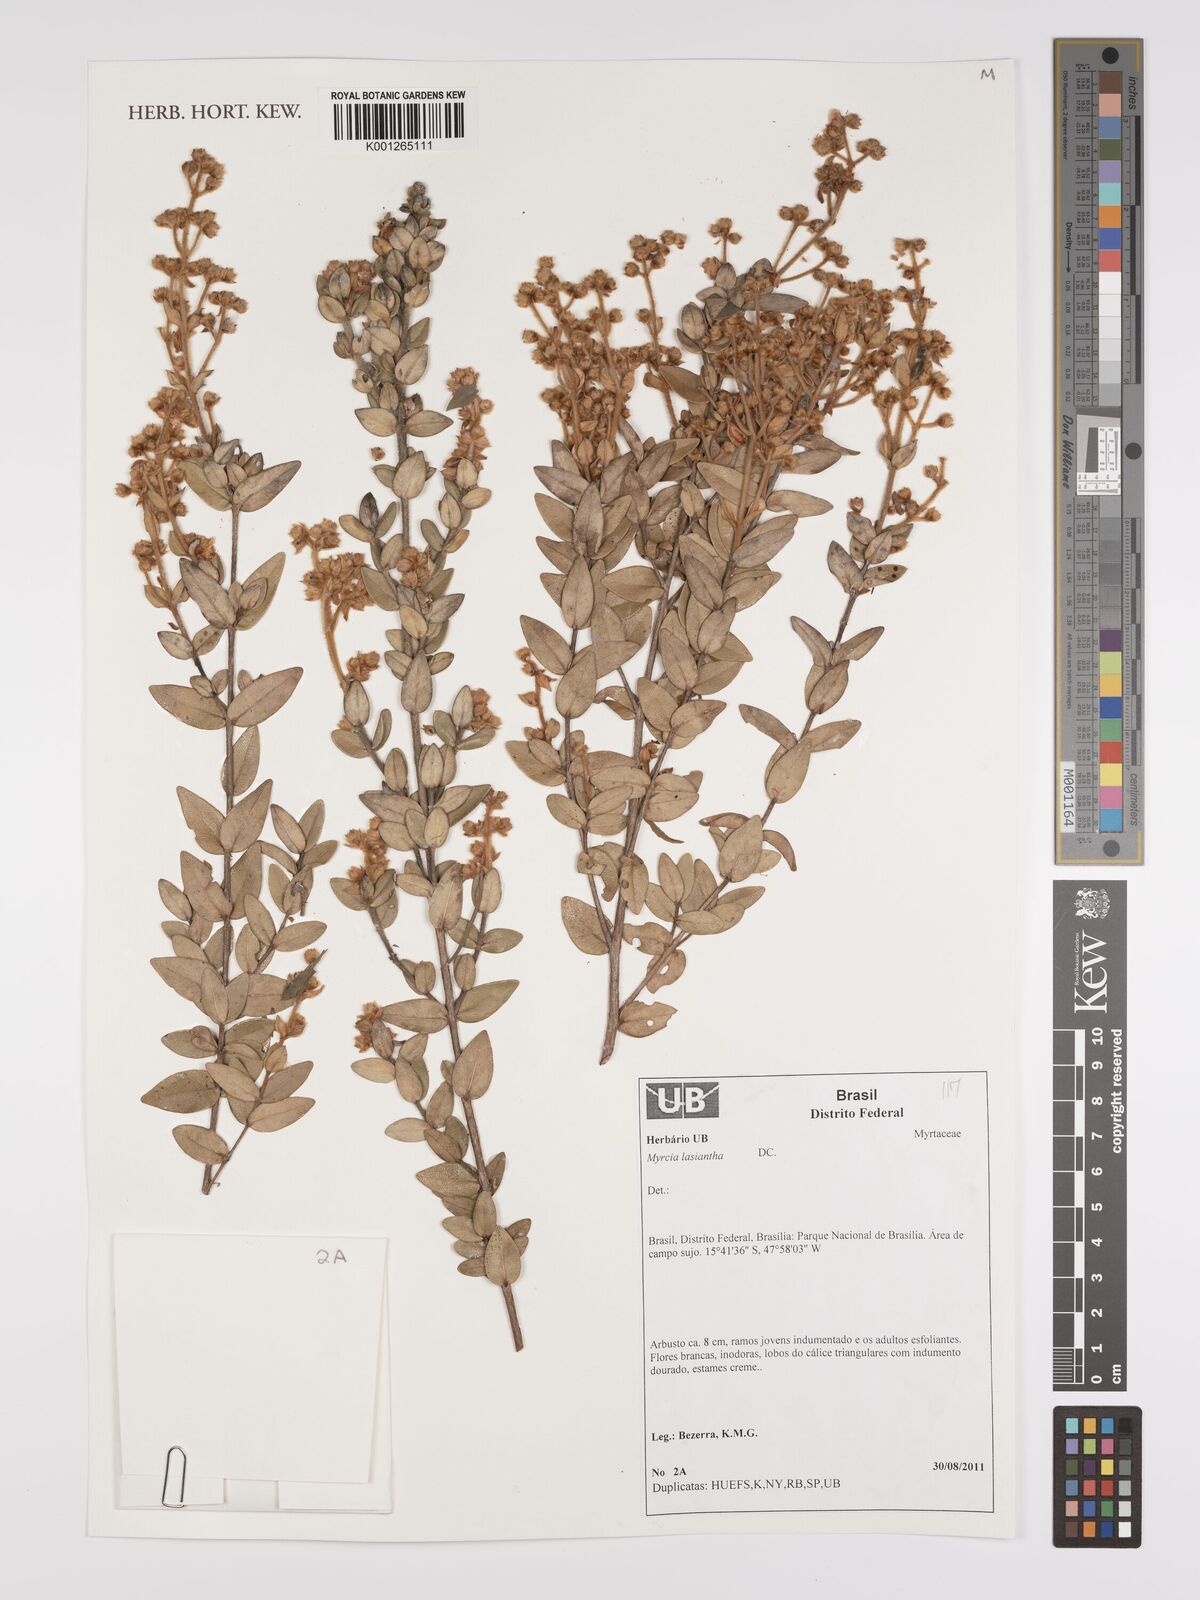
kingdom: Plantae
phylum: Tracheophyta
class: Magnoliopsida
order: Myrtales
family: Myrtaceae
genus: Myrcia
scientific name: Myrcia lasiantha
